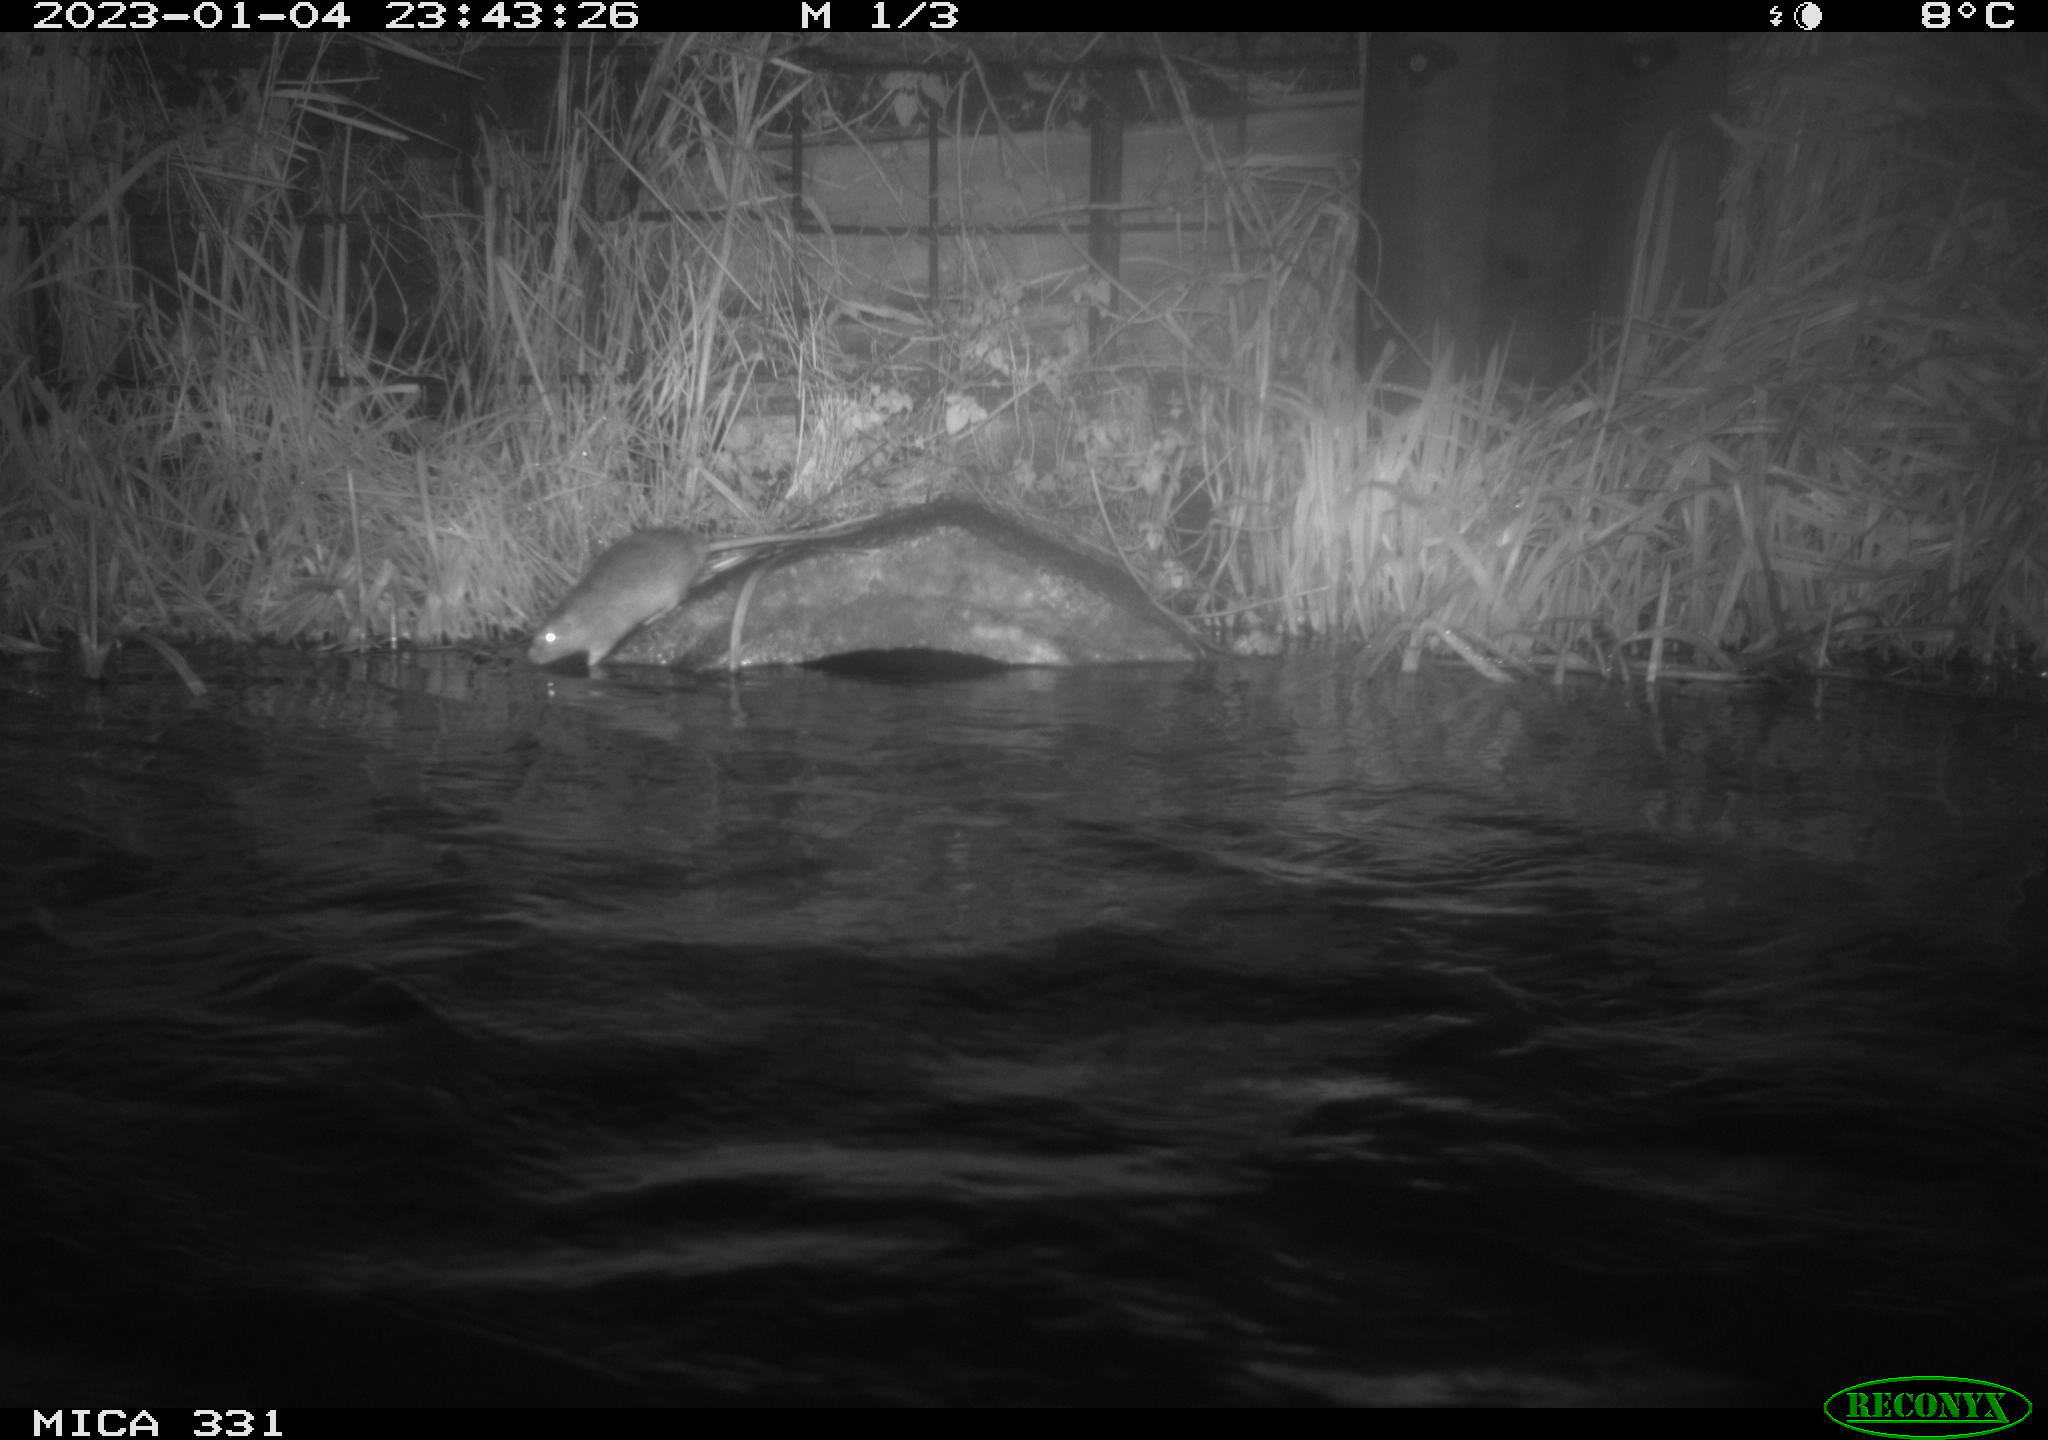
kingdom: Animalia
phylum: Chordata
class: Mammalia
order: Rodentia
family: Muridae
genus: Rattus
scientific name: Rattus norvegicus
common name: Brown rat
